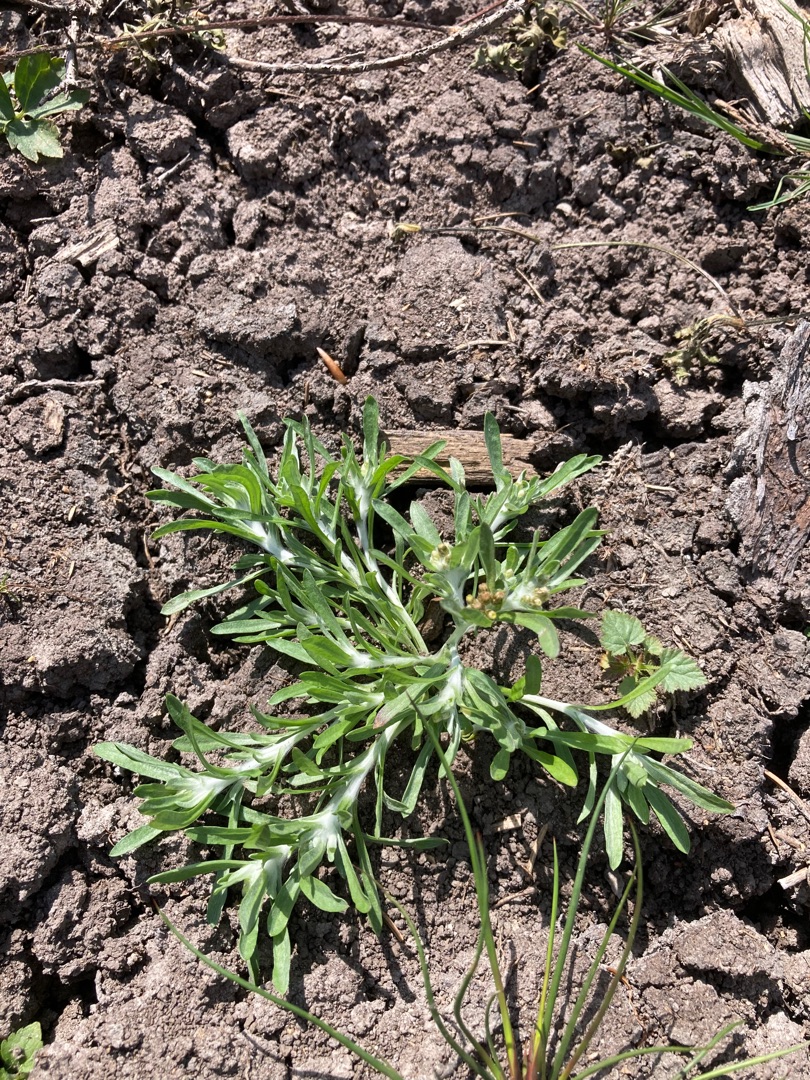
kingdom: Plantae
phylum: Tracheophyta
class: Magnoliopsida
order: Asterales
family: Asteraceae
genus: Gnaphalium
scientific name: Gnaphalium uliginosum
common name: Sump-evighedsblomst
